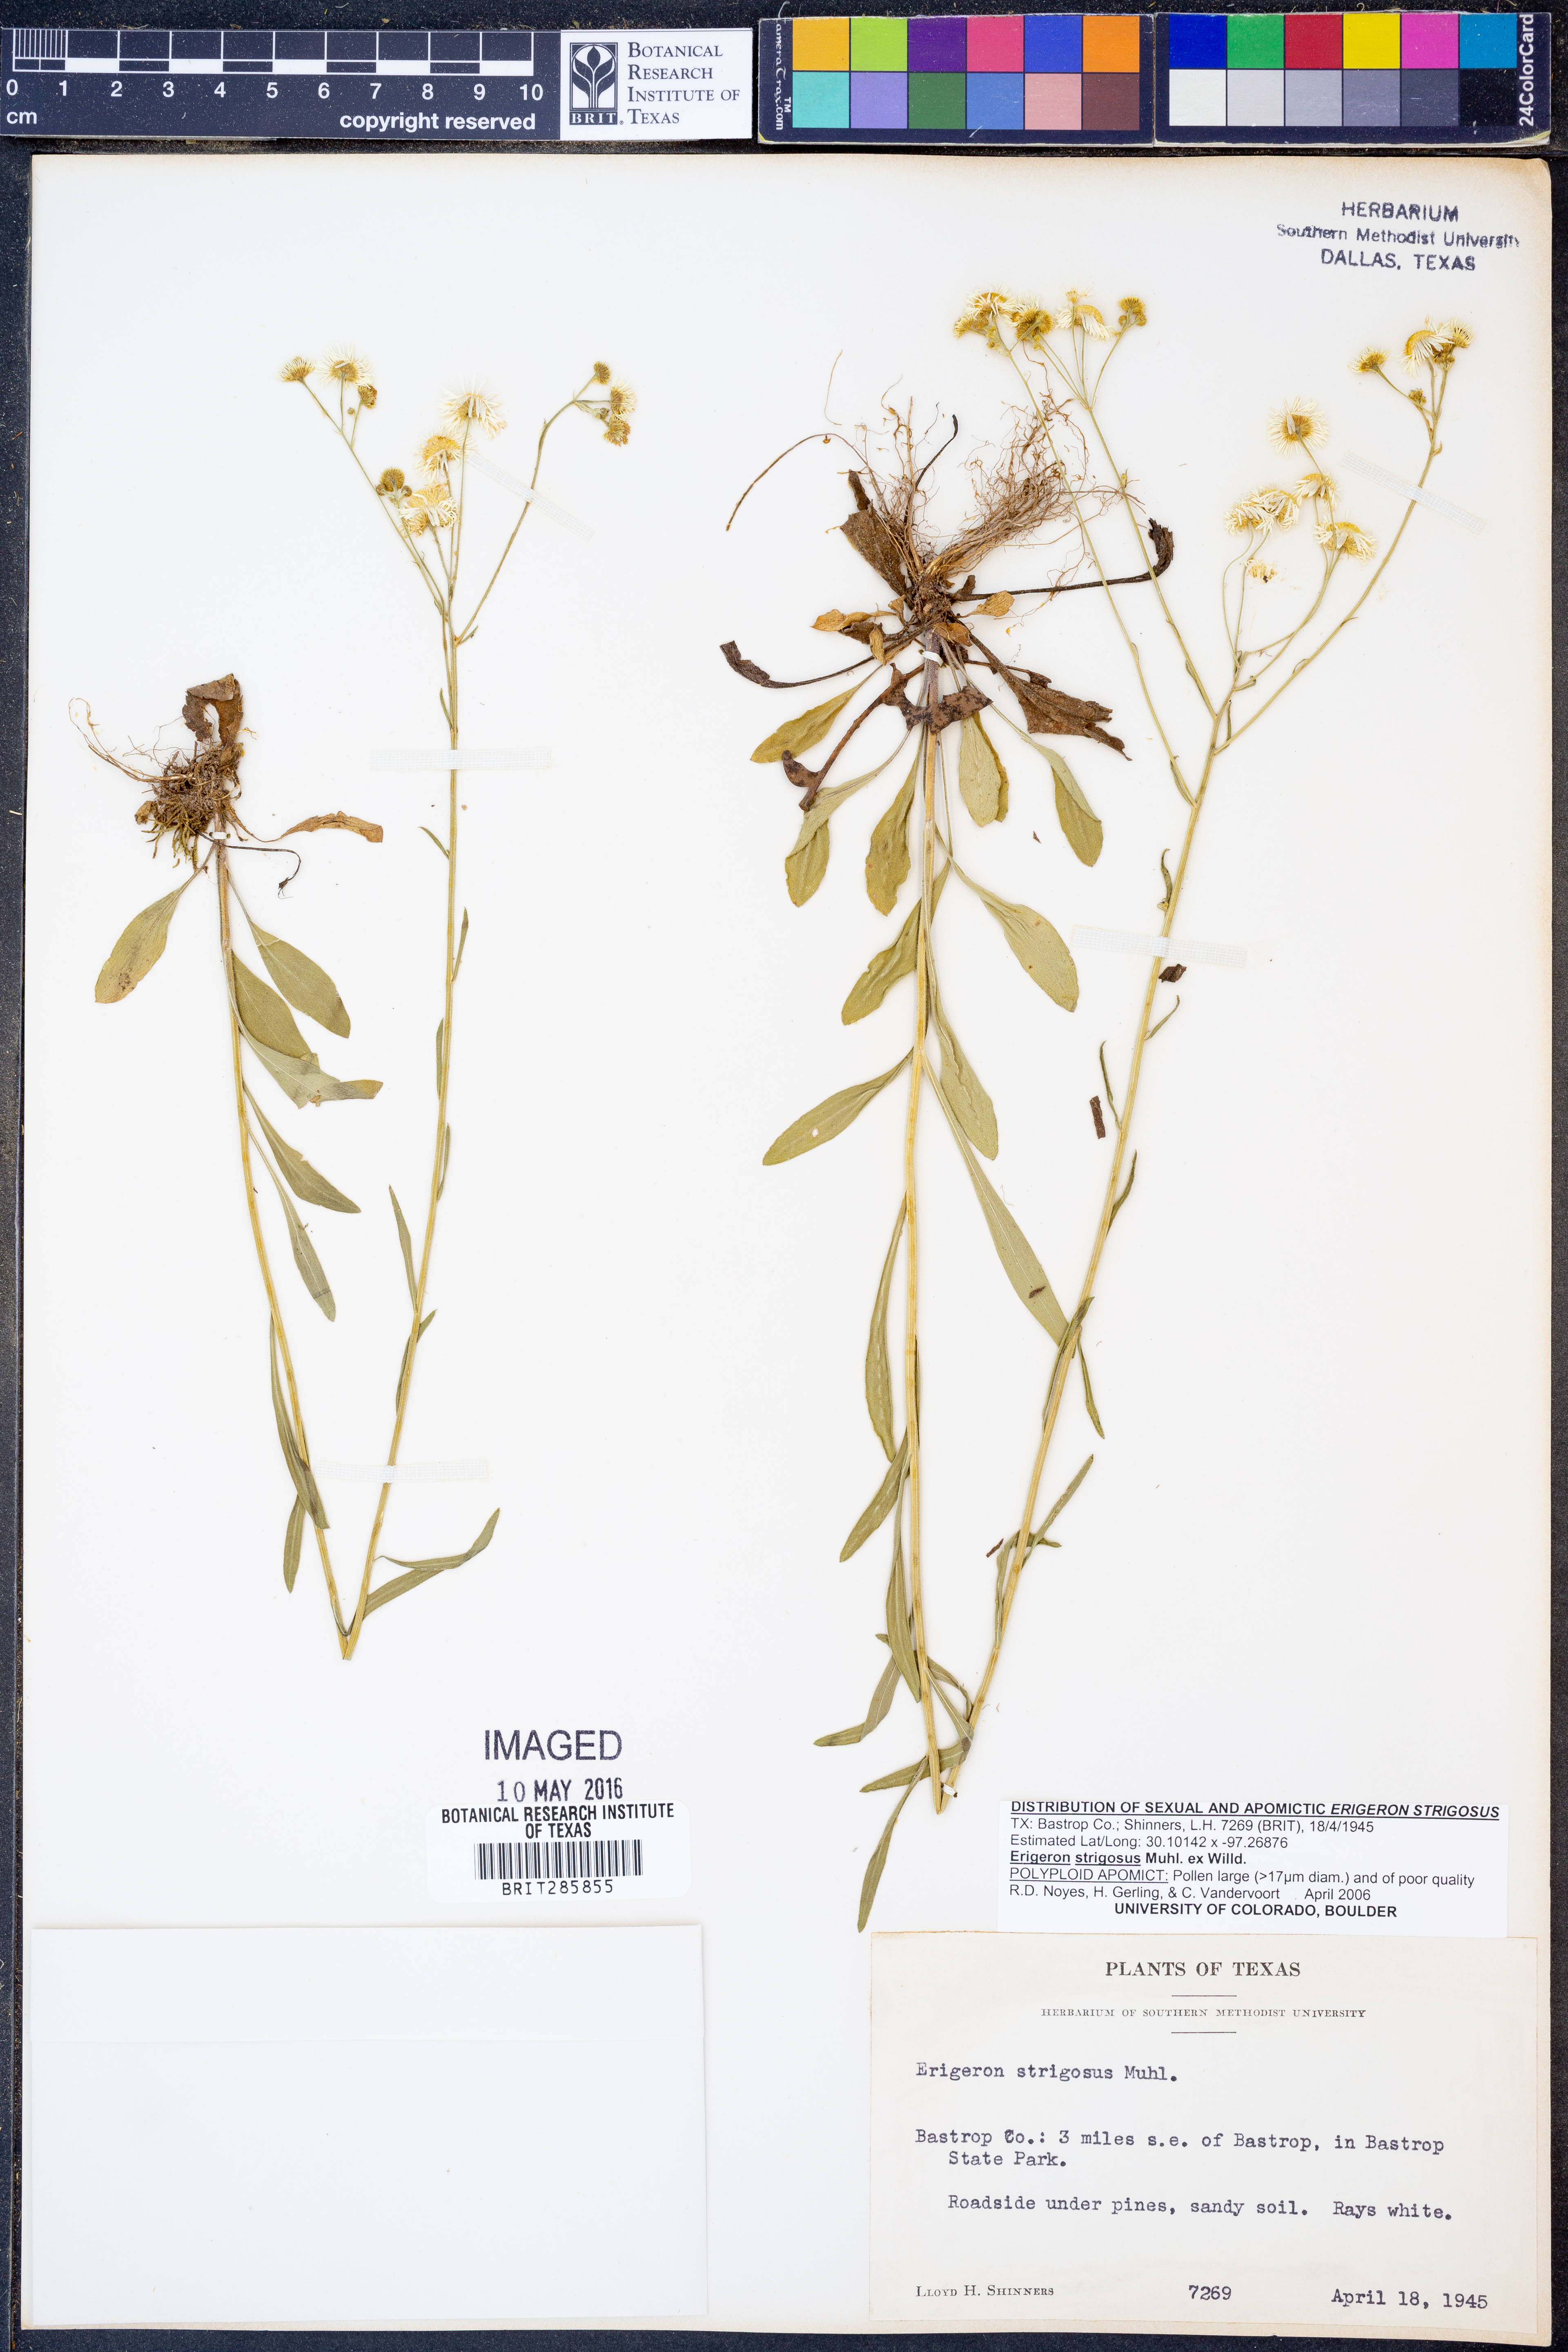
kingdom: Plantae
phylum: Tracheophyta
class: Magnoliopsida
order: Asterales
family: Asteraceae
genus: Erigeron
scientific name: Erigeron strigosus
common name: Common eastern fleabane
